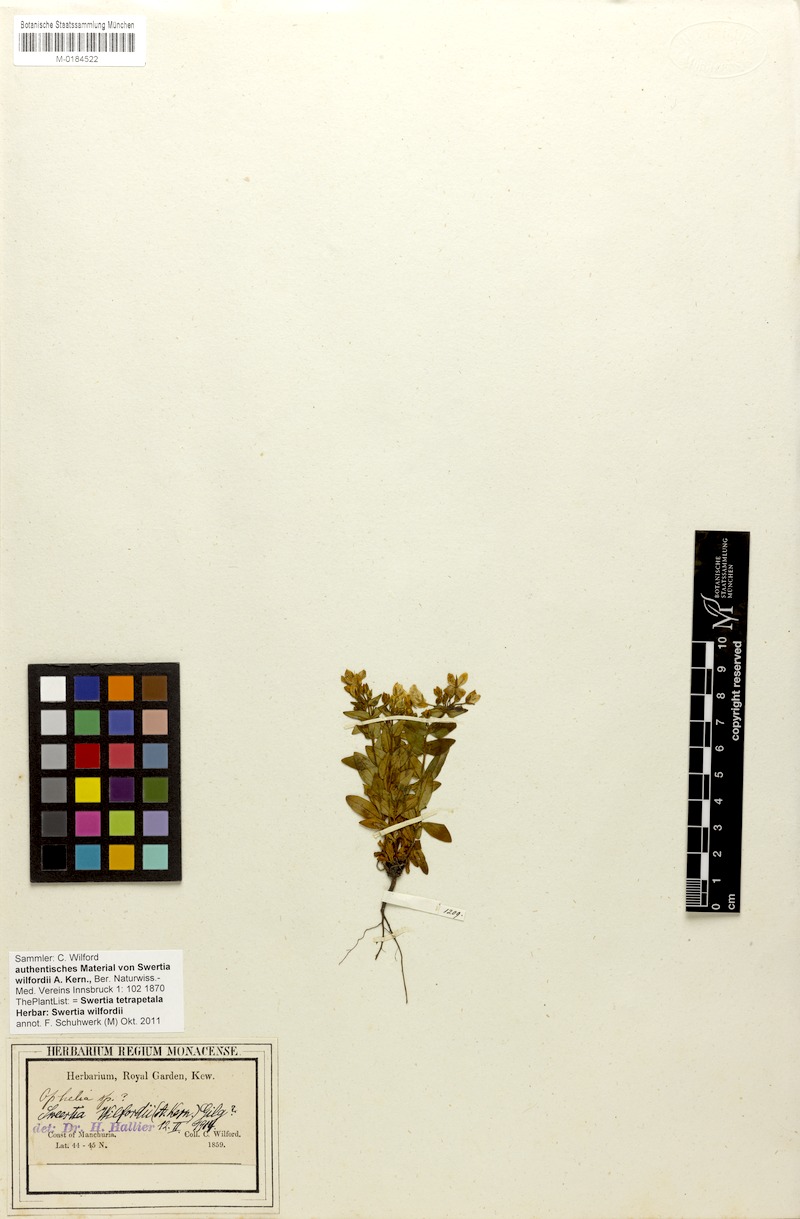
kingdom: Plantae
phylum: Tracheophyta
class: Magnoliopsida
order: Gentianales
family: Gentianaceae
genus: Swertia
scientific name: Swertia tetrapetala
